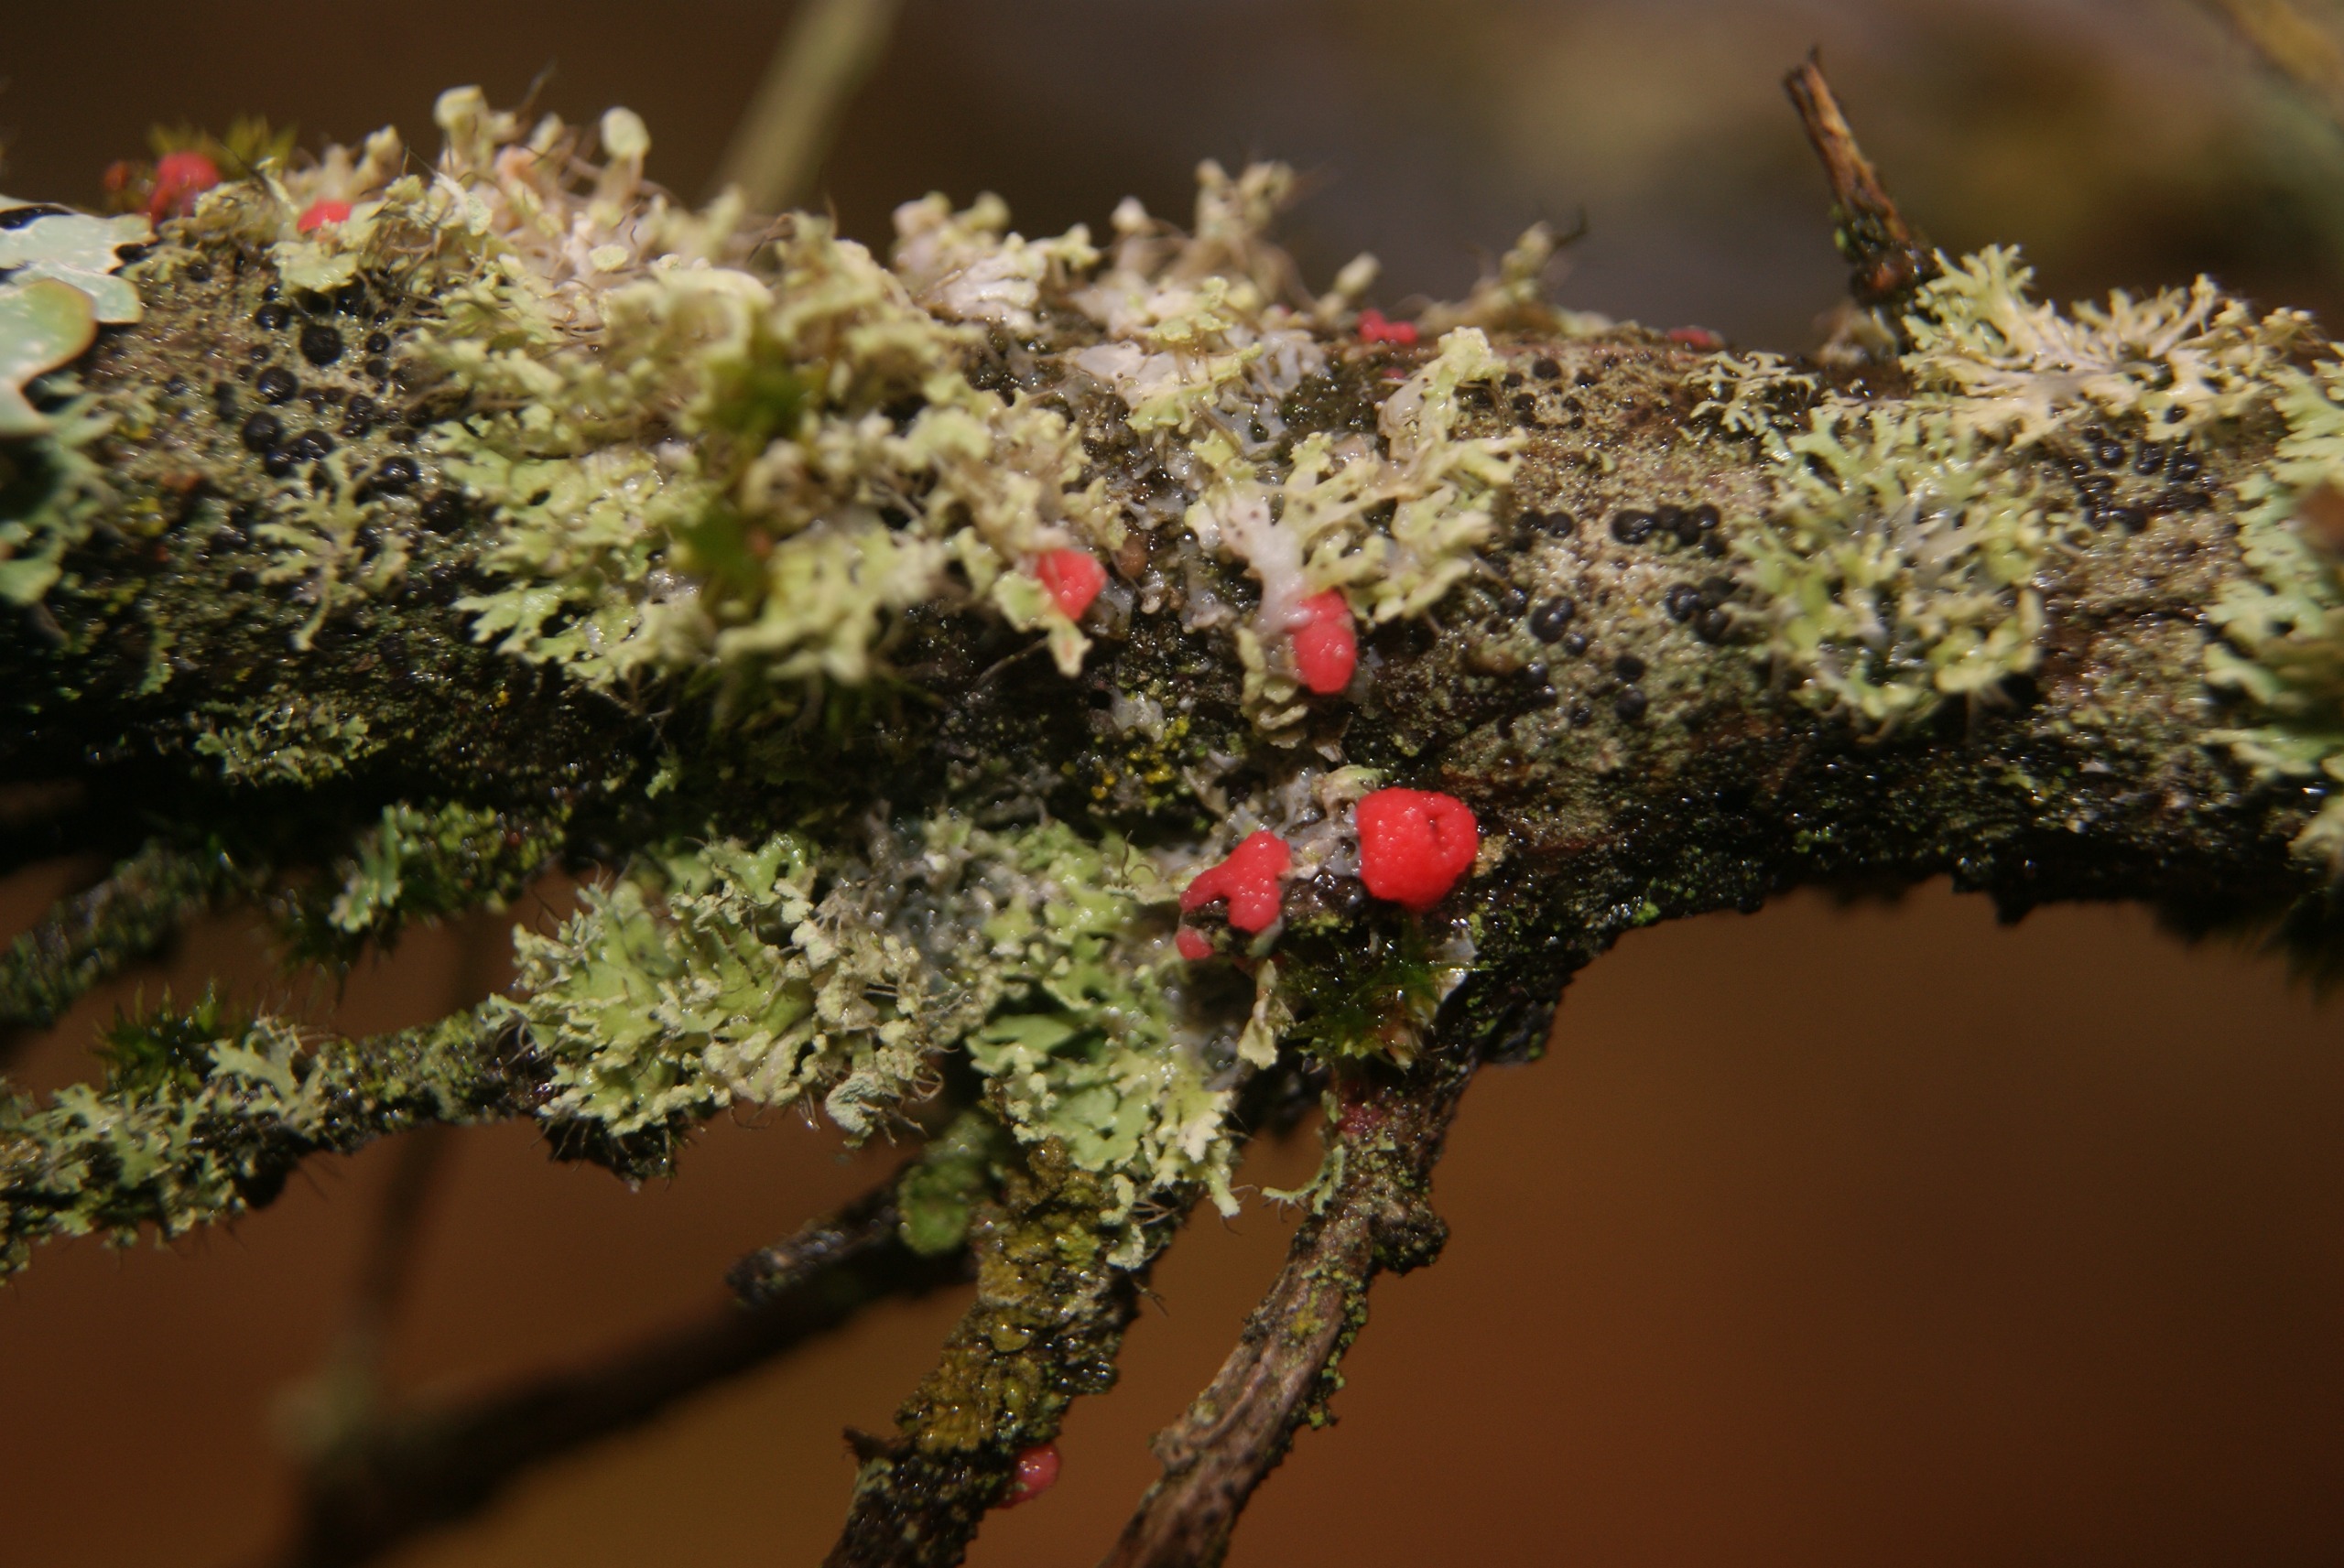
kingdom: Fungi
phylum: Ascomycota
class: Sordariomycetes
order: Hypocreales
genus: Illosporiopsis
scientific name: Illosporiopsis christiansenii
